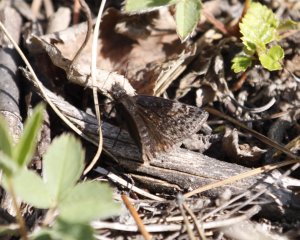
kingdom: Animalia
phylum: Arthropoda
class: Insecta
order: Lepidoptera
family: Hesperiidae
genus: Gesta
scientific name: Gesta
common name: Persius Duskywing
